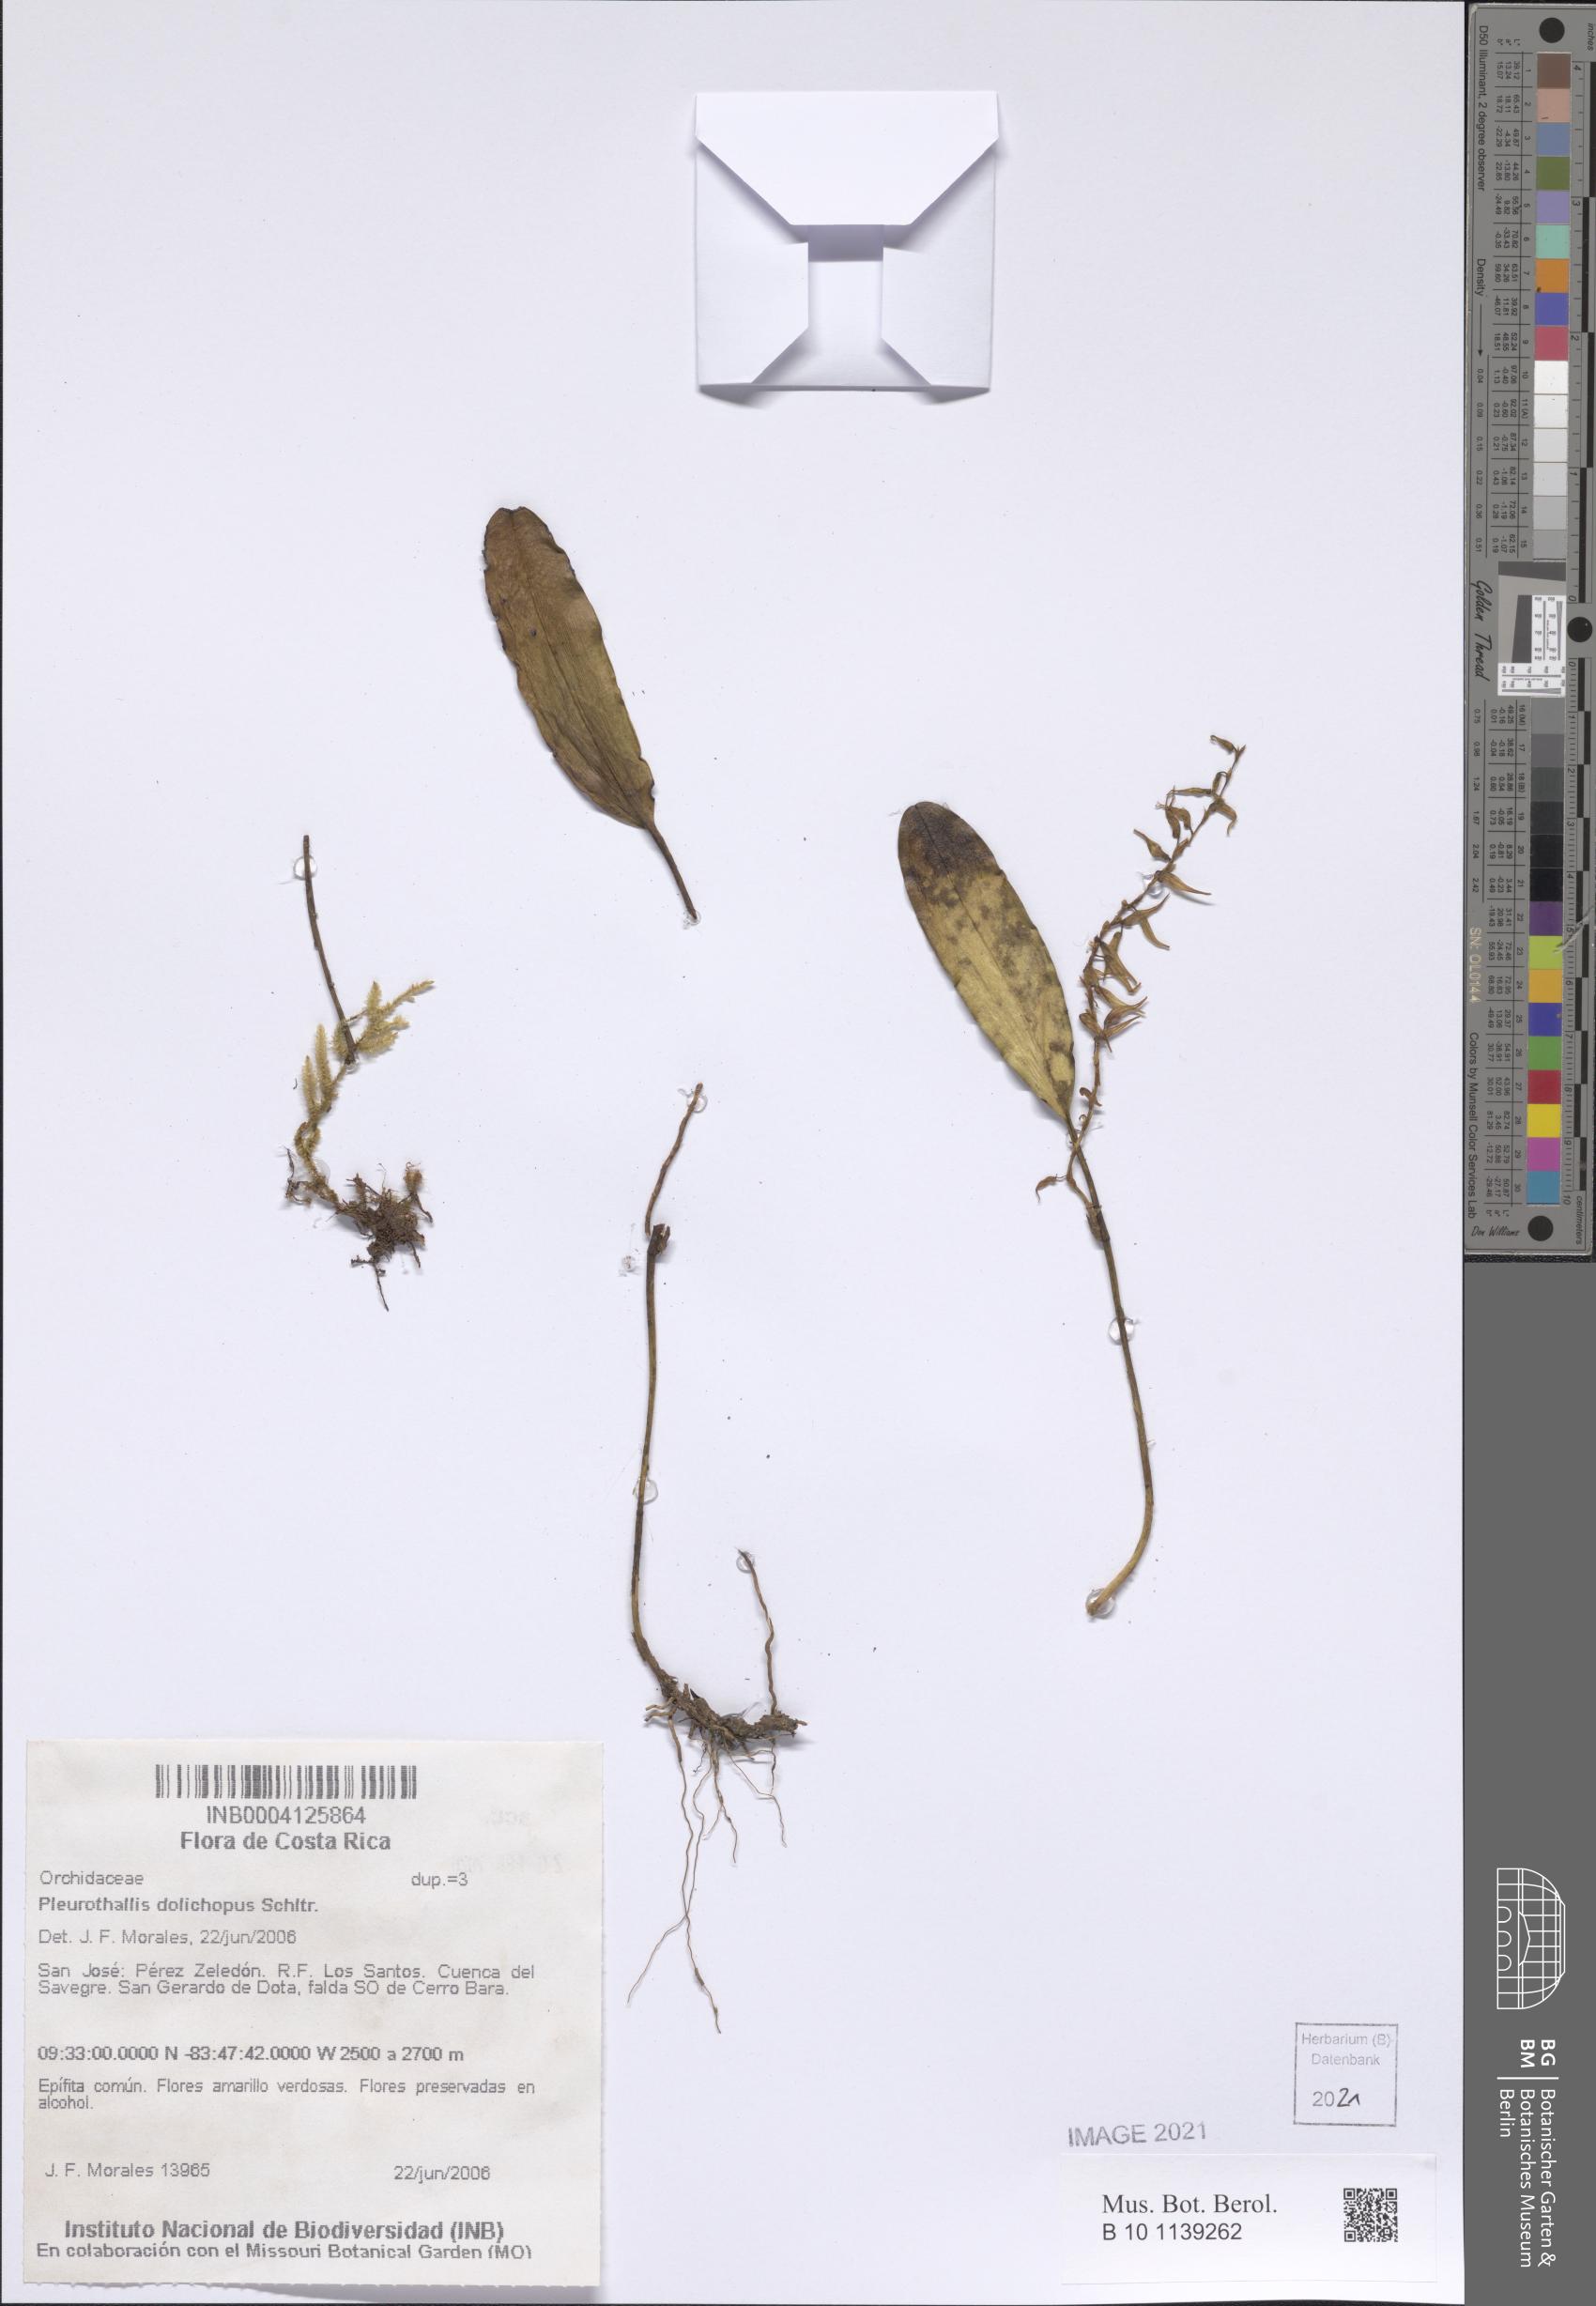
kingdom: Plantae
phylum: Tracheophyta
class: Liliopsida
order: Asparagales
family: Orchidaceae
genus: Stelis
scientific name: Stelis poasensis
